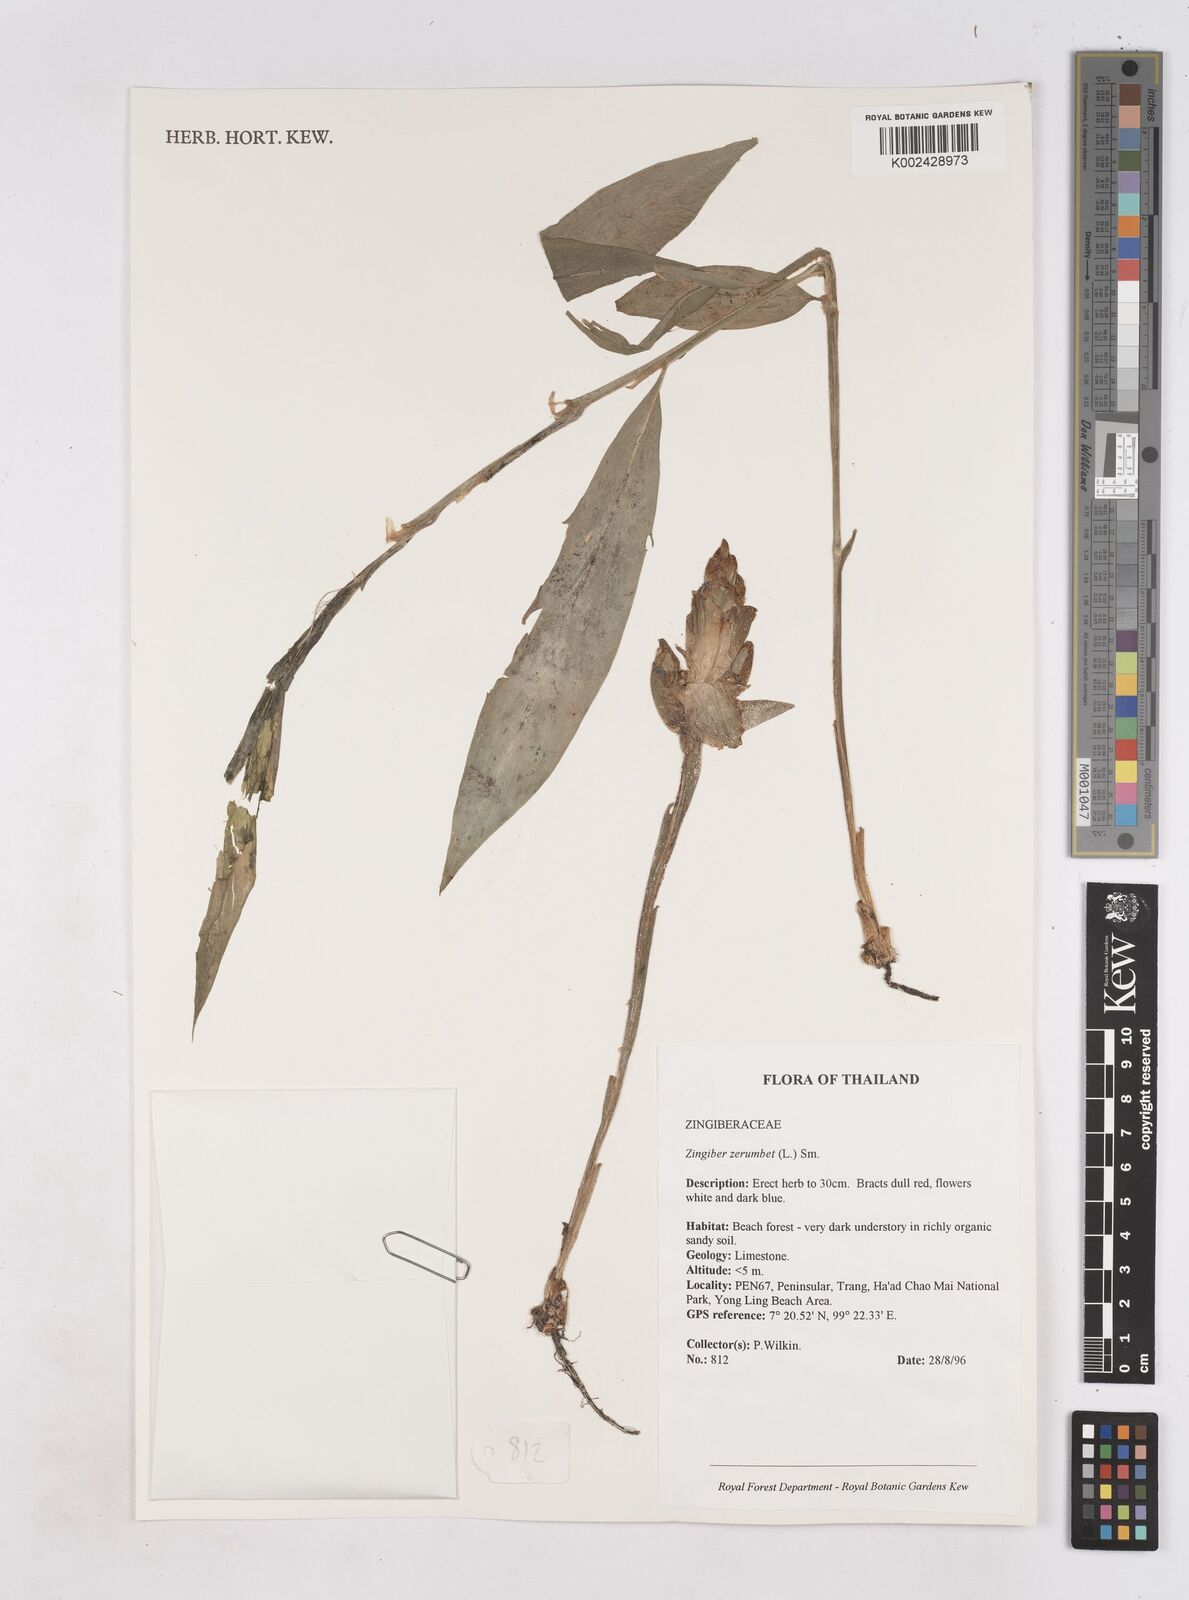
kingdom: Plantae
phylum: Tracheophyta
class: Liliopsida
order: Zingiberales
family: Zingiberaceae
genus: Zingiber
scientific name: Zingiber zerumbet
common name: Bitter ginger
